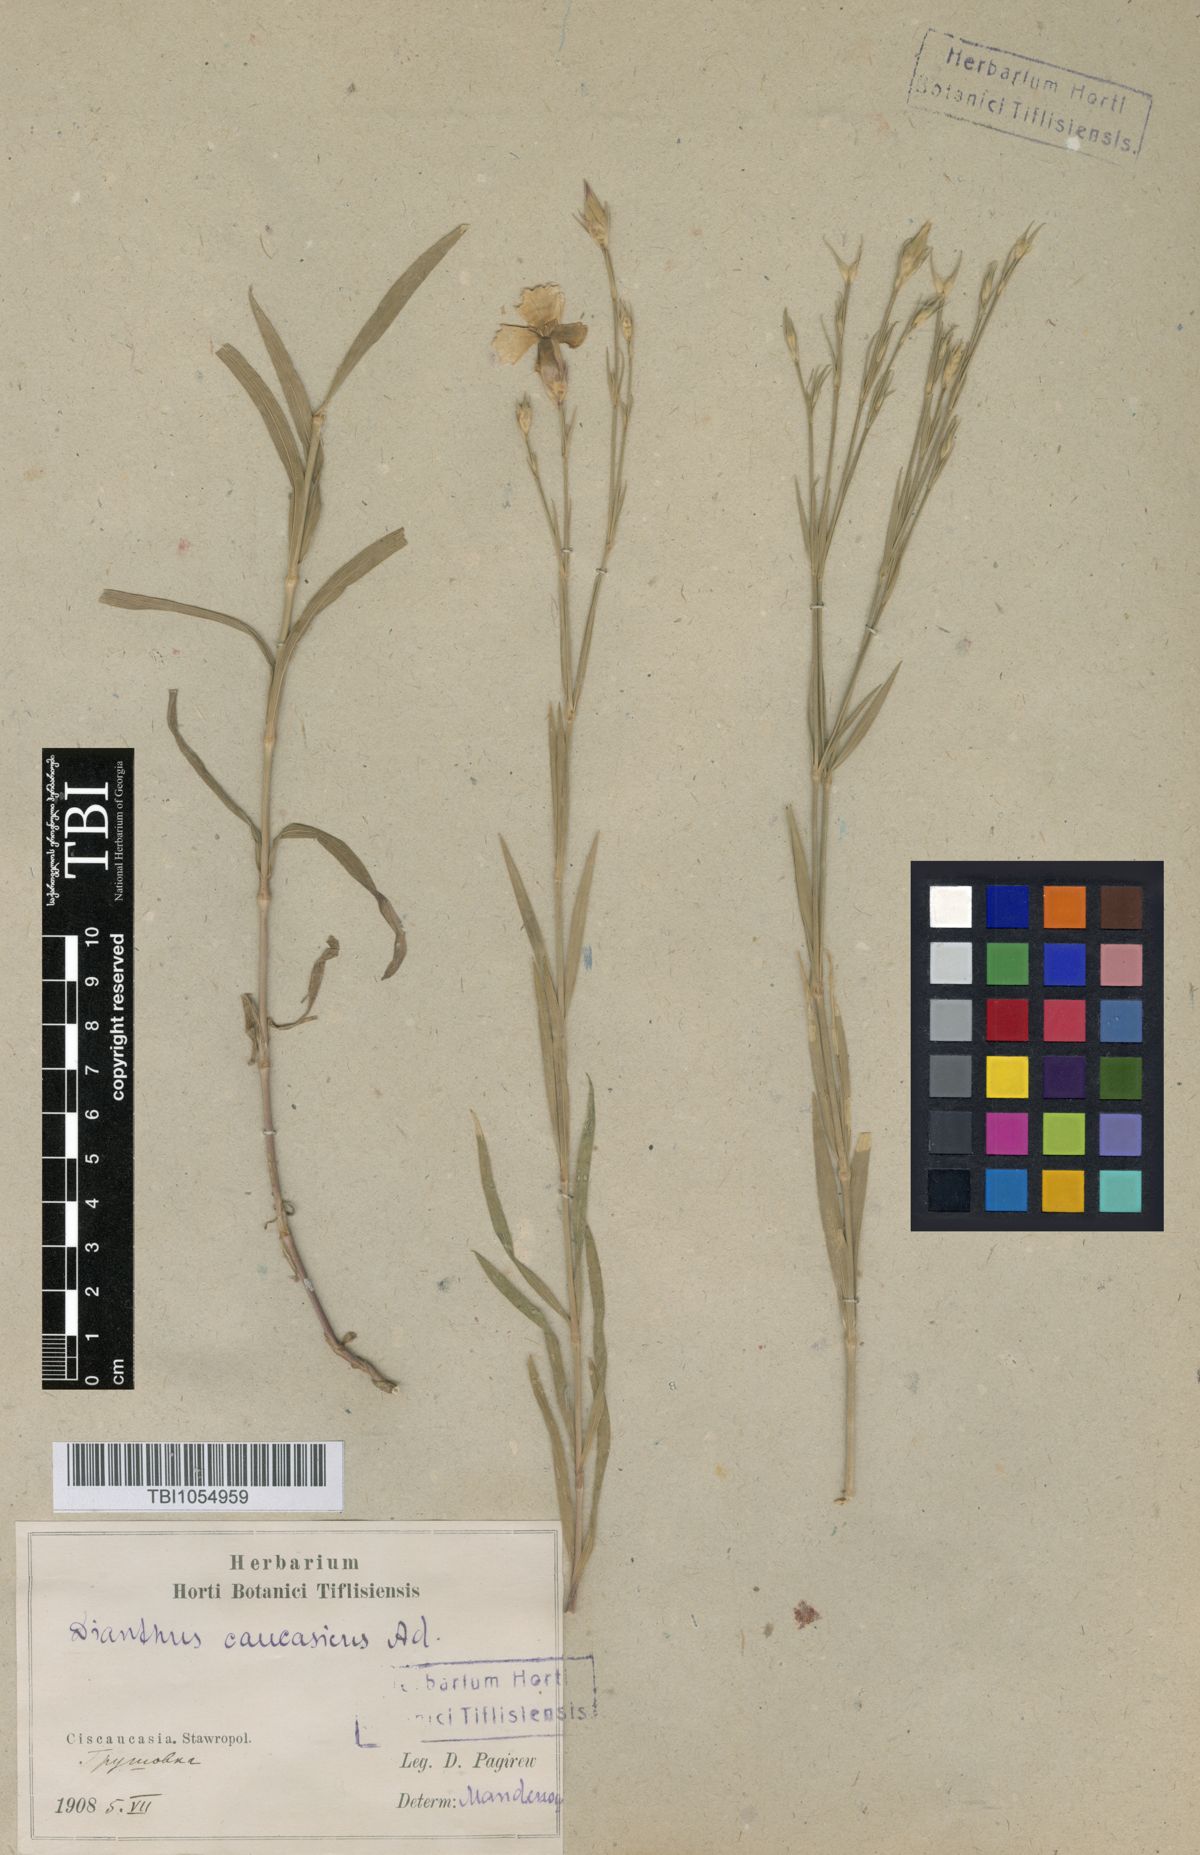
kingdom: Plantae
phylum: Tracheophyta
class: Magnoliopsida
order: Caryophyllales
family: Caryophyllaceae
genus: Dianthus
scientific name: Dianthus caucaseus
